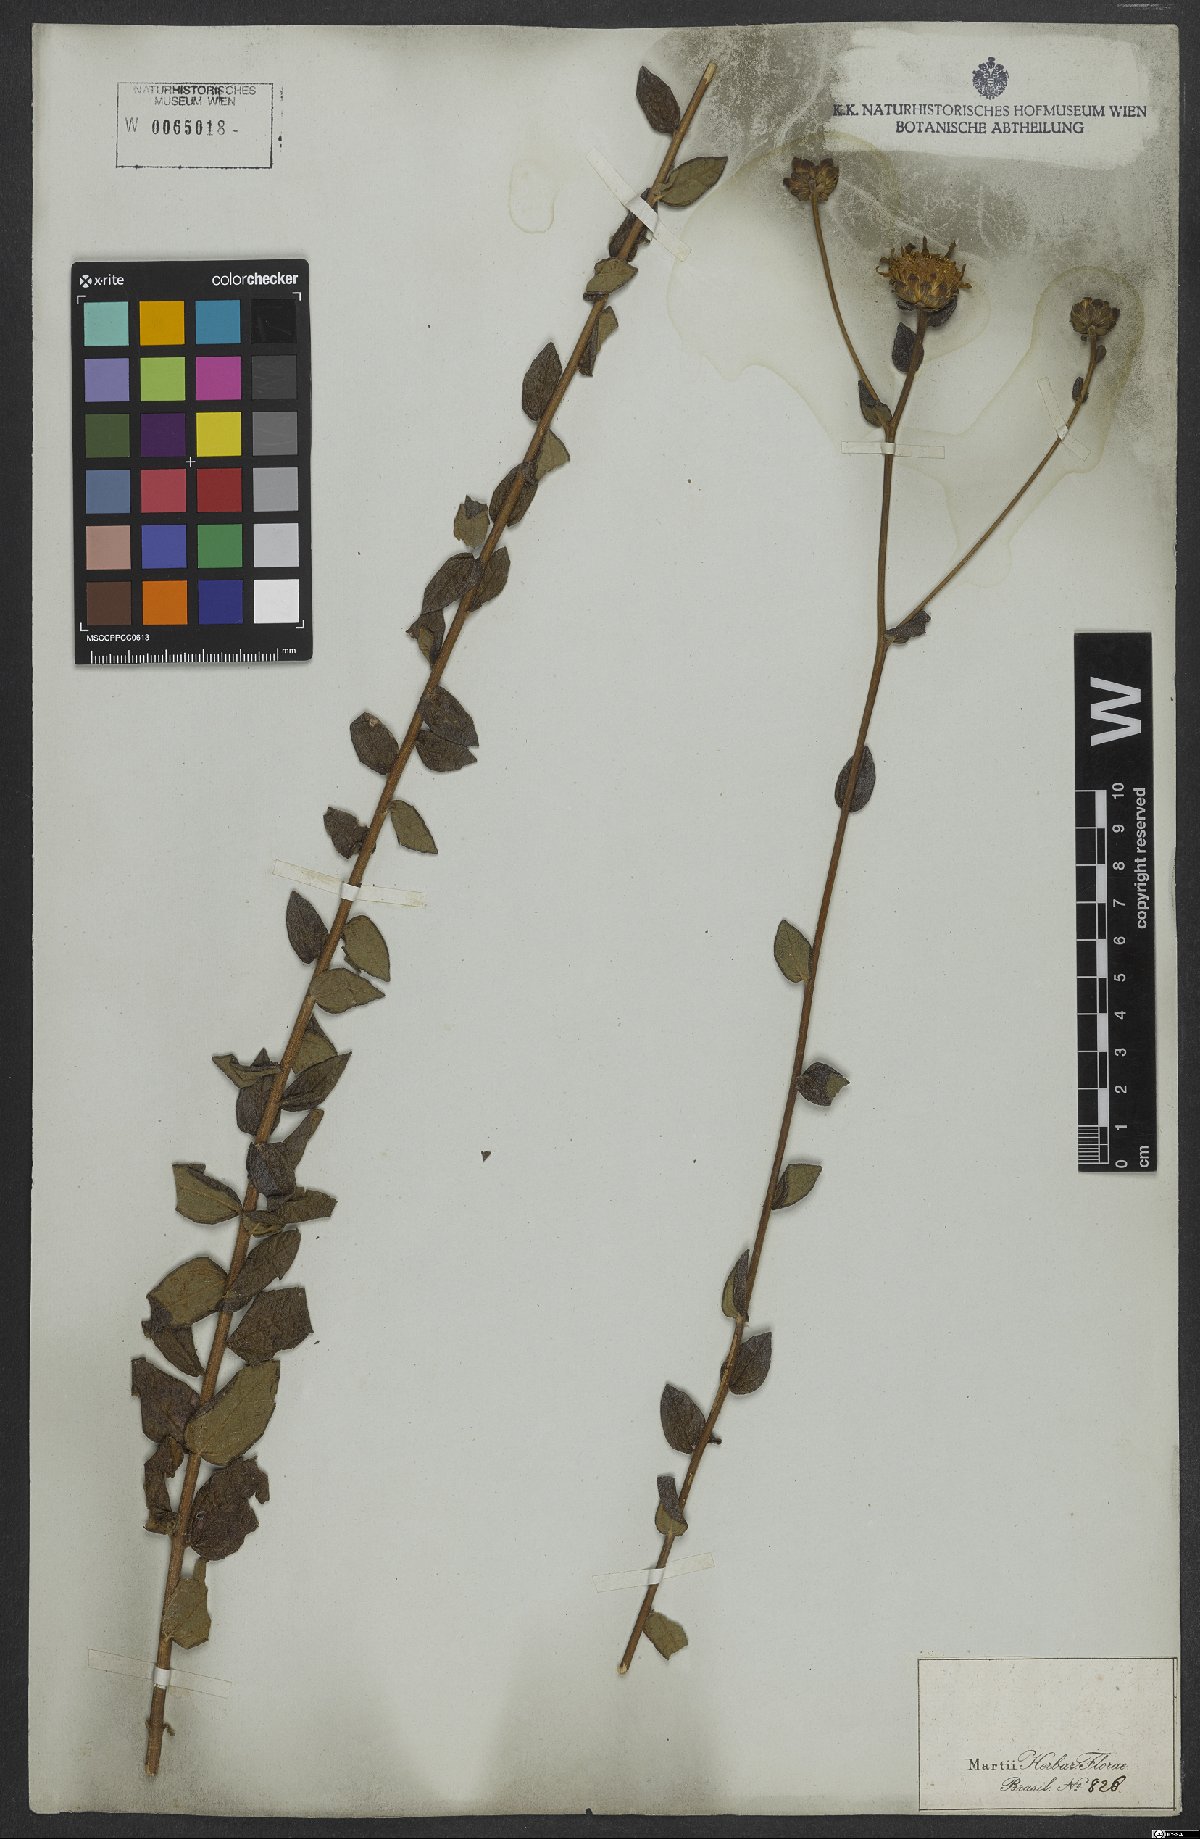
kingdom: Plantae
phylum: Tracheophyta
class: Magnoliopsida
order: Asterales
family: Asteraceae
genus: Aldama
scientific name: Aldama robusta
